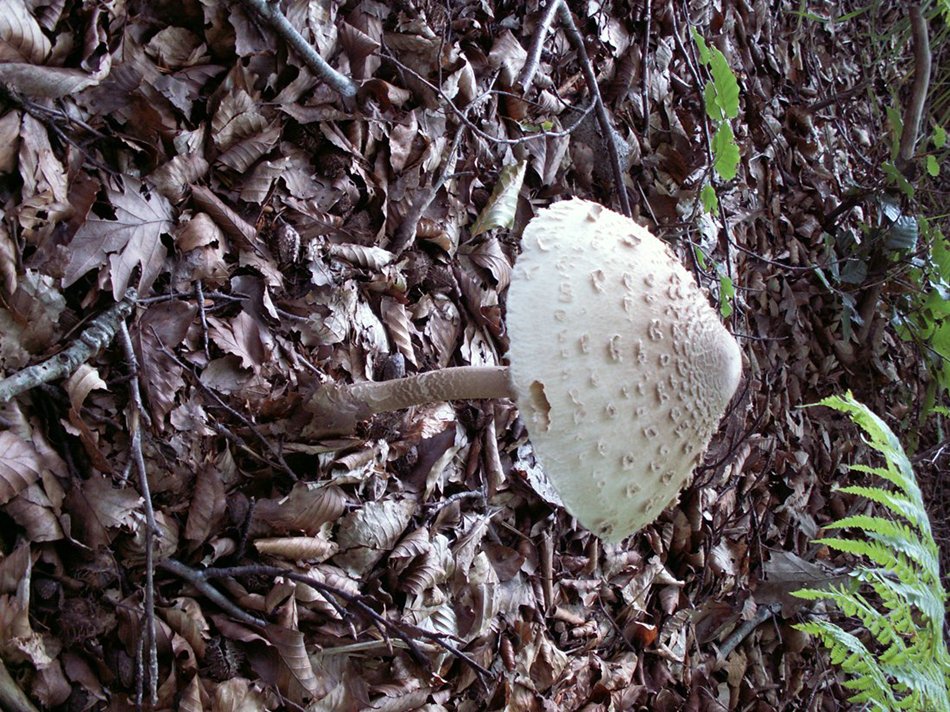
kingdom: Fungi
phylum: Basidiomycota
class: Agaricomycetes
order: Agaricales
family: Agaricaceae
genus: Macrolepiota
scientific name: Macrolepiota procera
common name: stor kæmpeparasolhat
